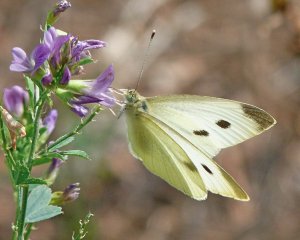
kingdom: Animalia
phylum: Arthropoda
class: Insecta
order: Lepidoptera
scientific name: Lepidoptera
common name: Butterflies
